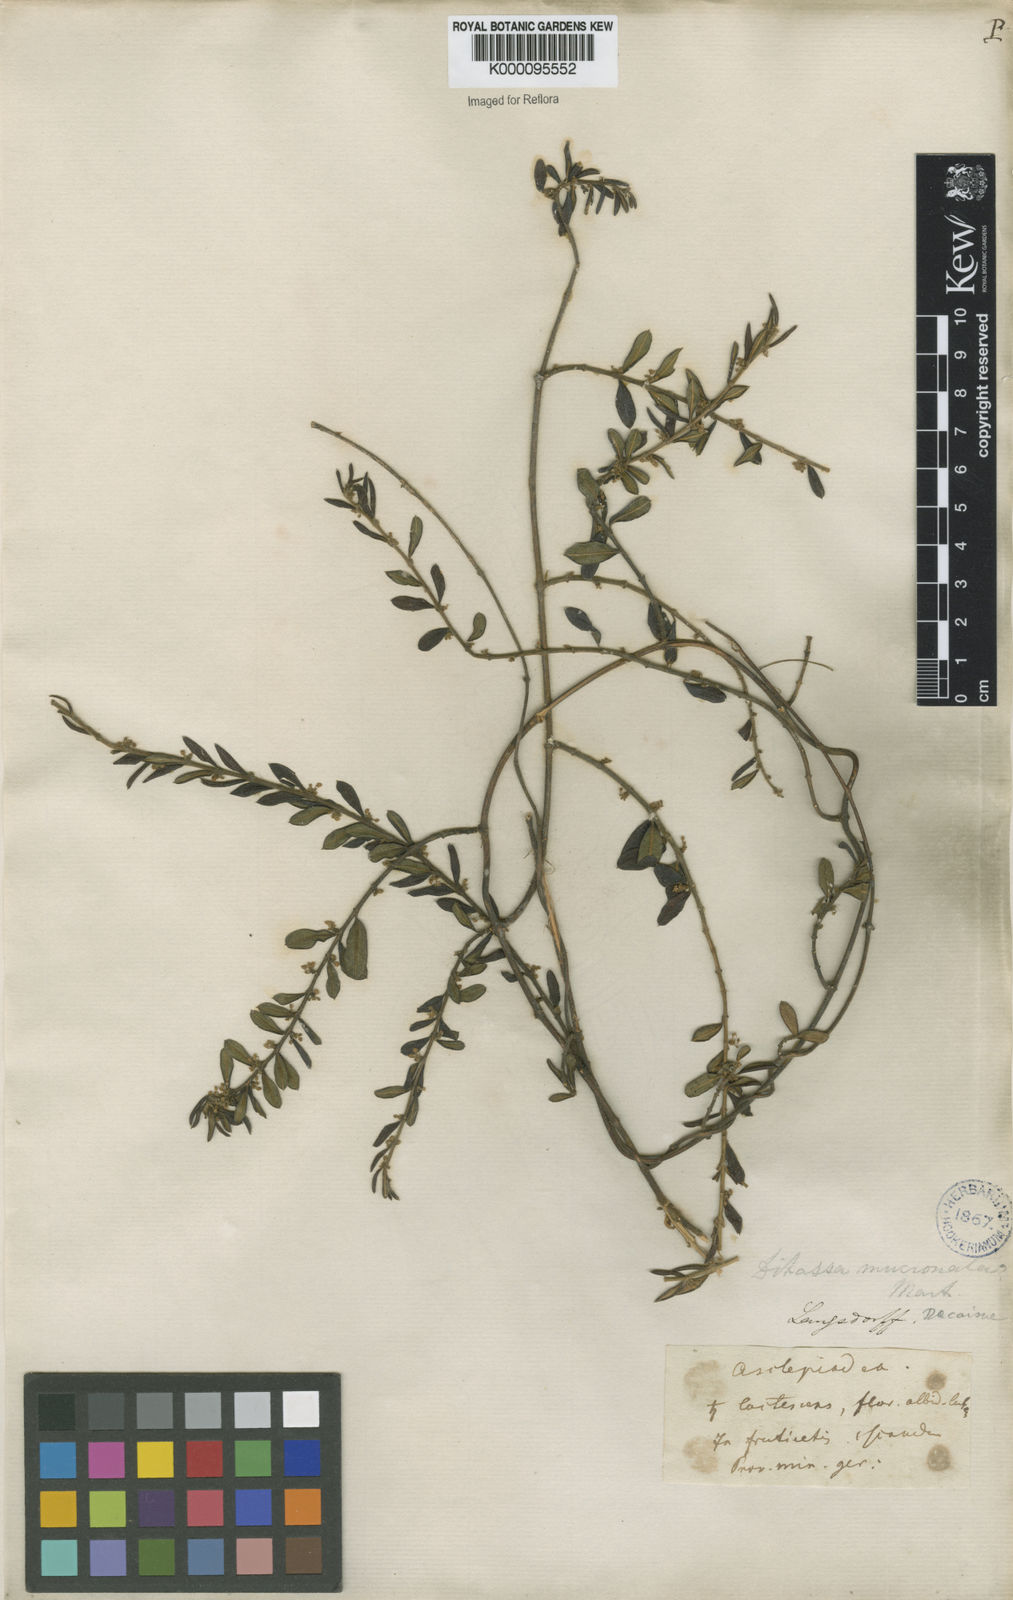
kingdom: Plantae
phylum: Tracheophyta
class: Magnoliopsida
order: Gentianales
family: Apocynaceae
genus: Ditassa
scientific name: Ditassa mucronata
